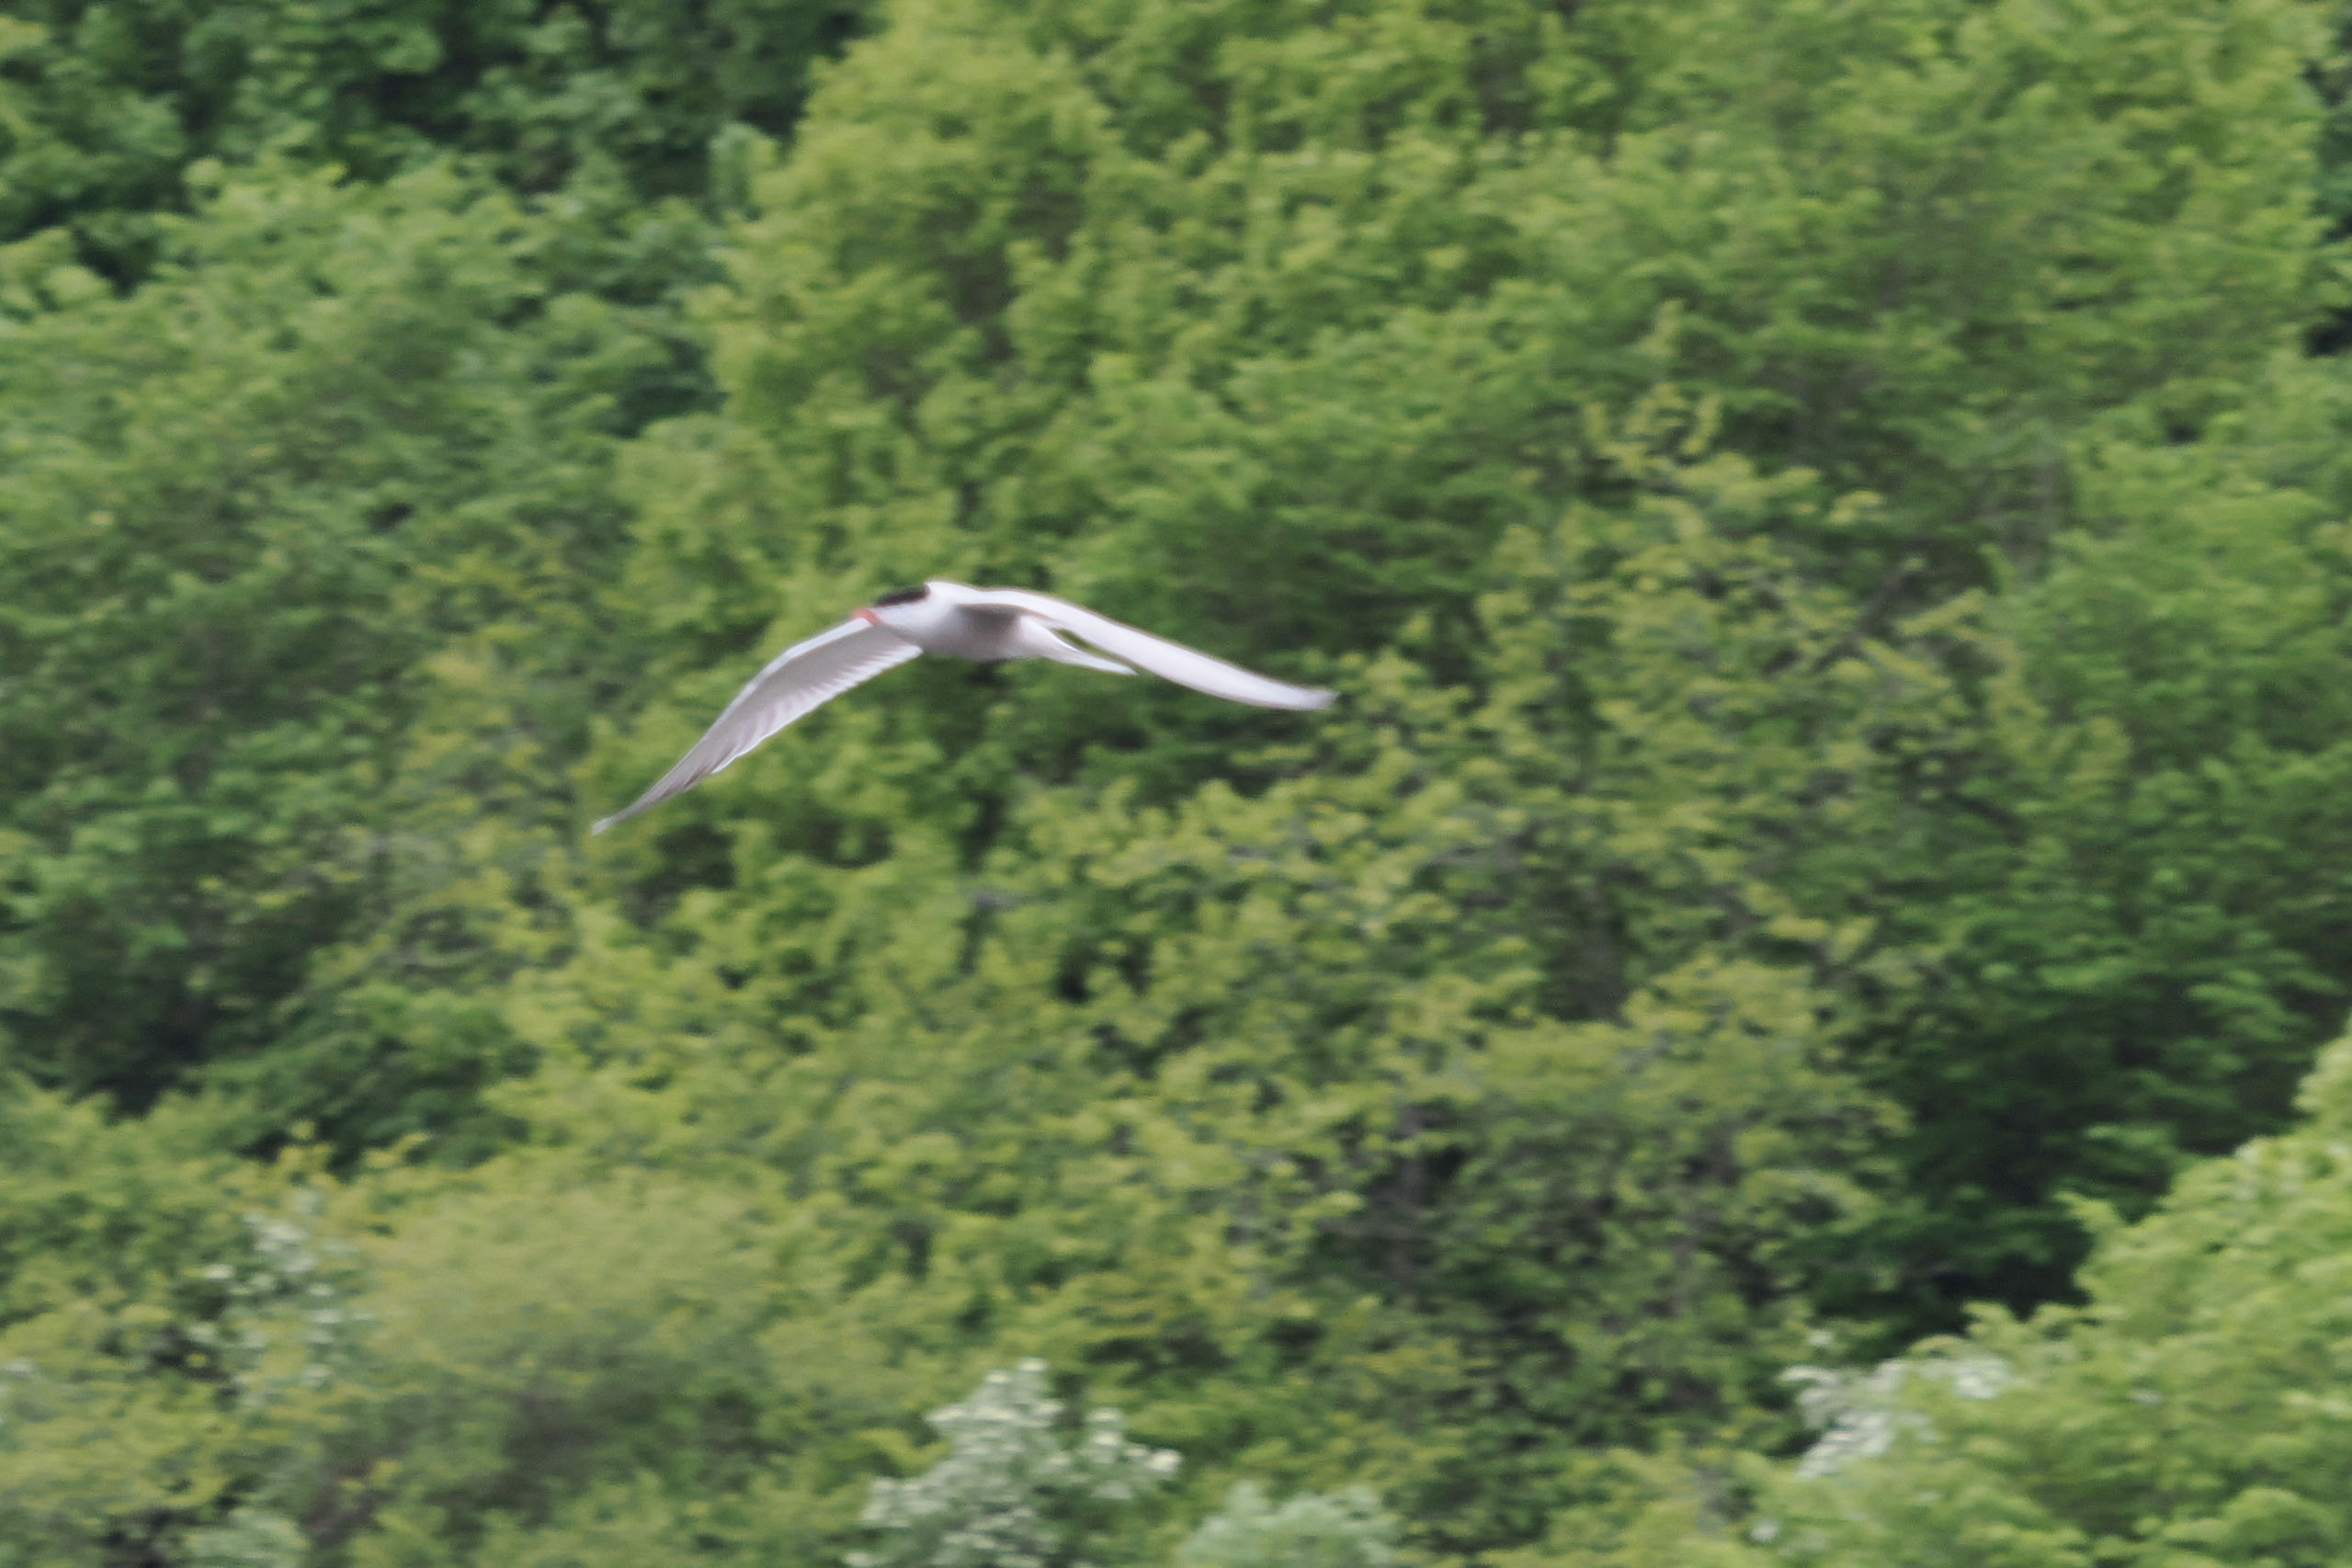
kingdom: Animalia
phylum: Chordata
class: Aves
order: Charadriiformes
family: Laridae
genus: Sterna
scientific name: Sterna hirundo
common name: Fjordterne
